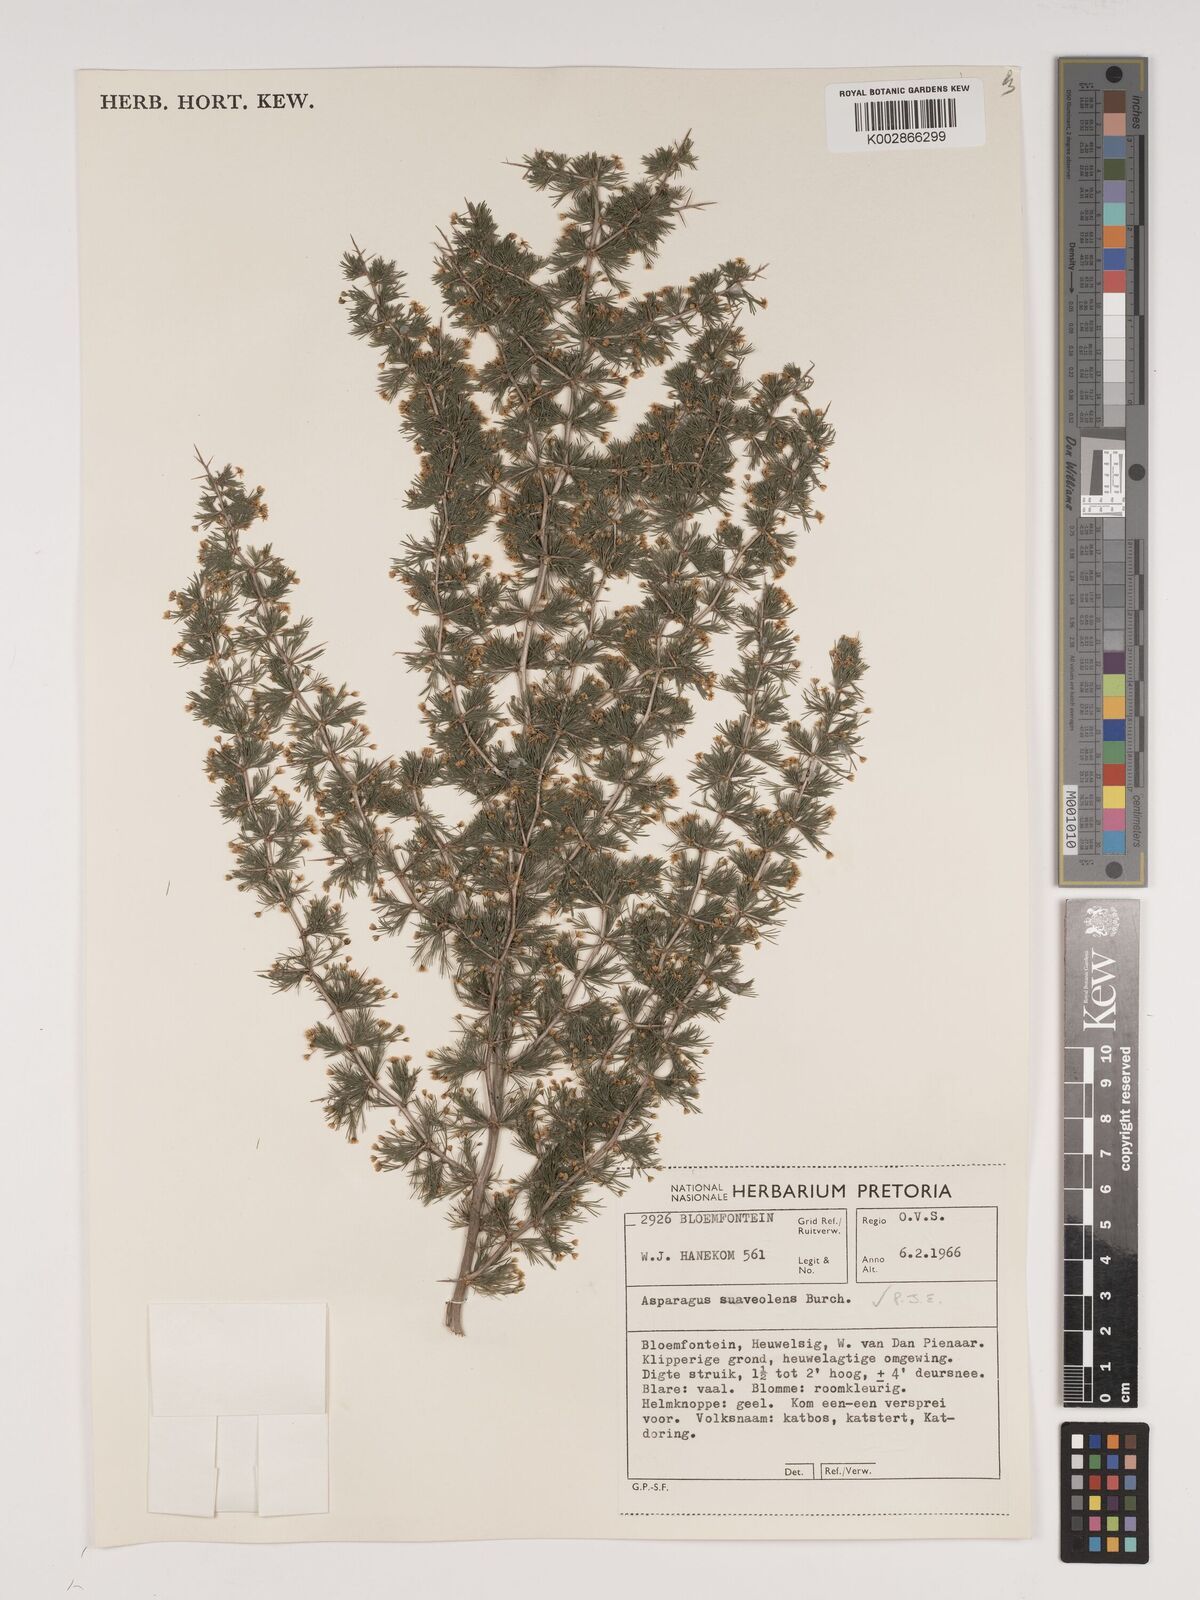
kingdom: Plantae
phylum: Tracheophyta
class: Liliopsida
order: Asparagales
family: Asparagaceae
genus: Asparagus
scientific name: Asparagus suaveolens
